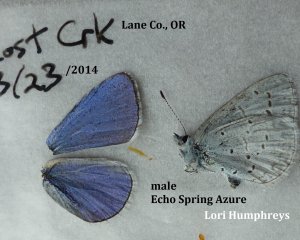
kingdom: Animalia
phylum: Arthropoda
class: Insecta
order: Lepidoptera
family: Lycaenidae
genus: Celastrina
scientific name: Celastrina ladon
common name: Spring Azure
